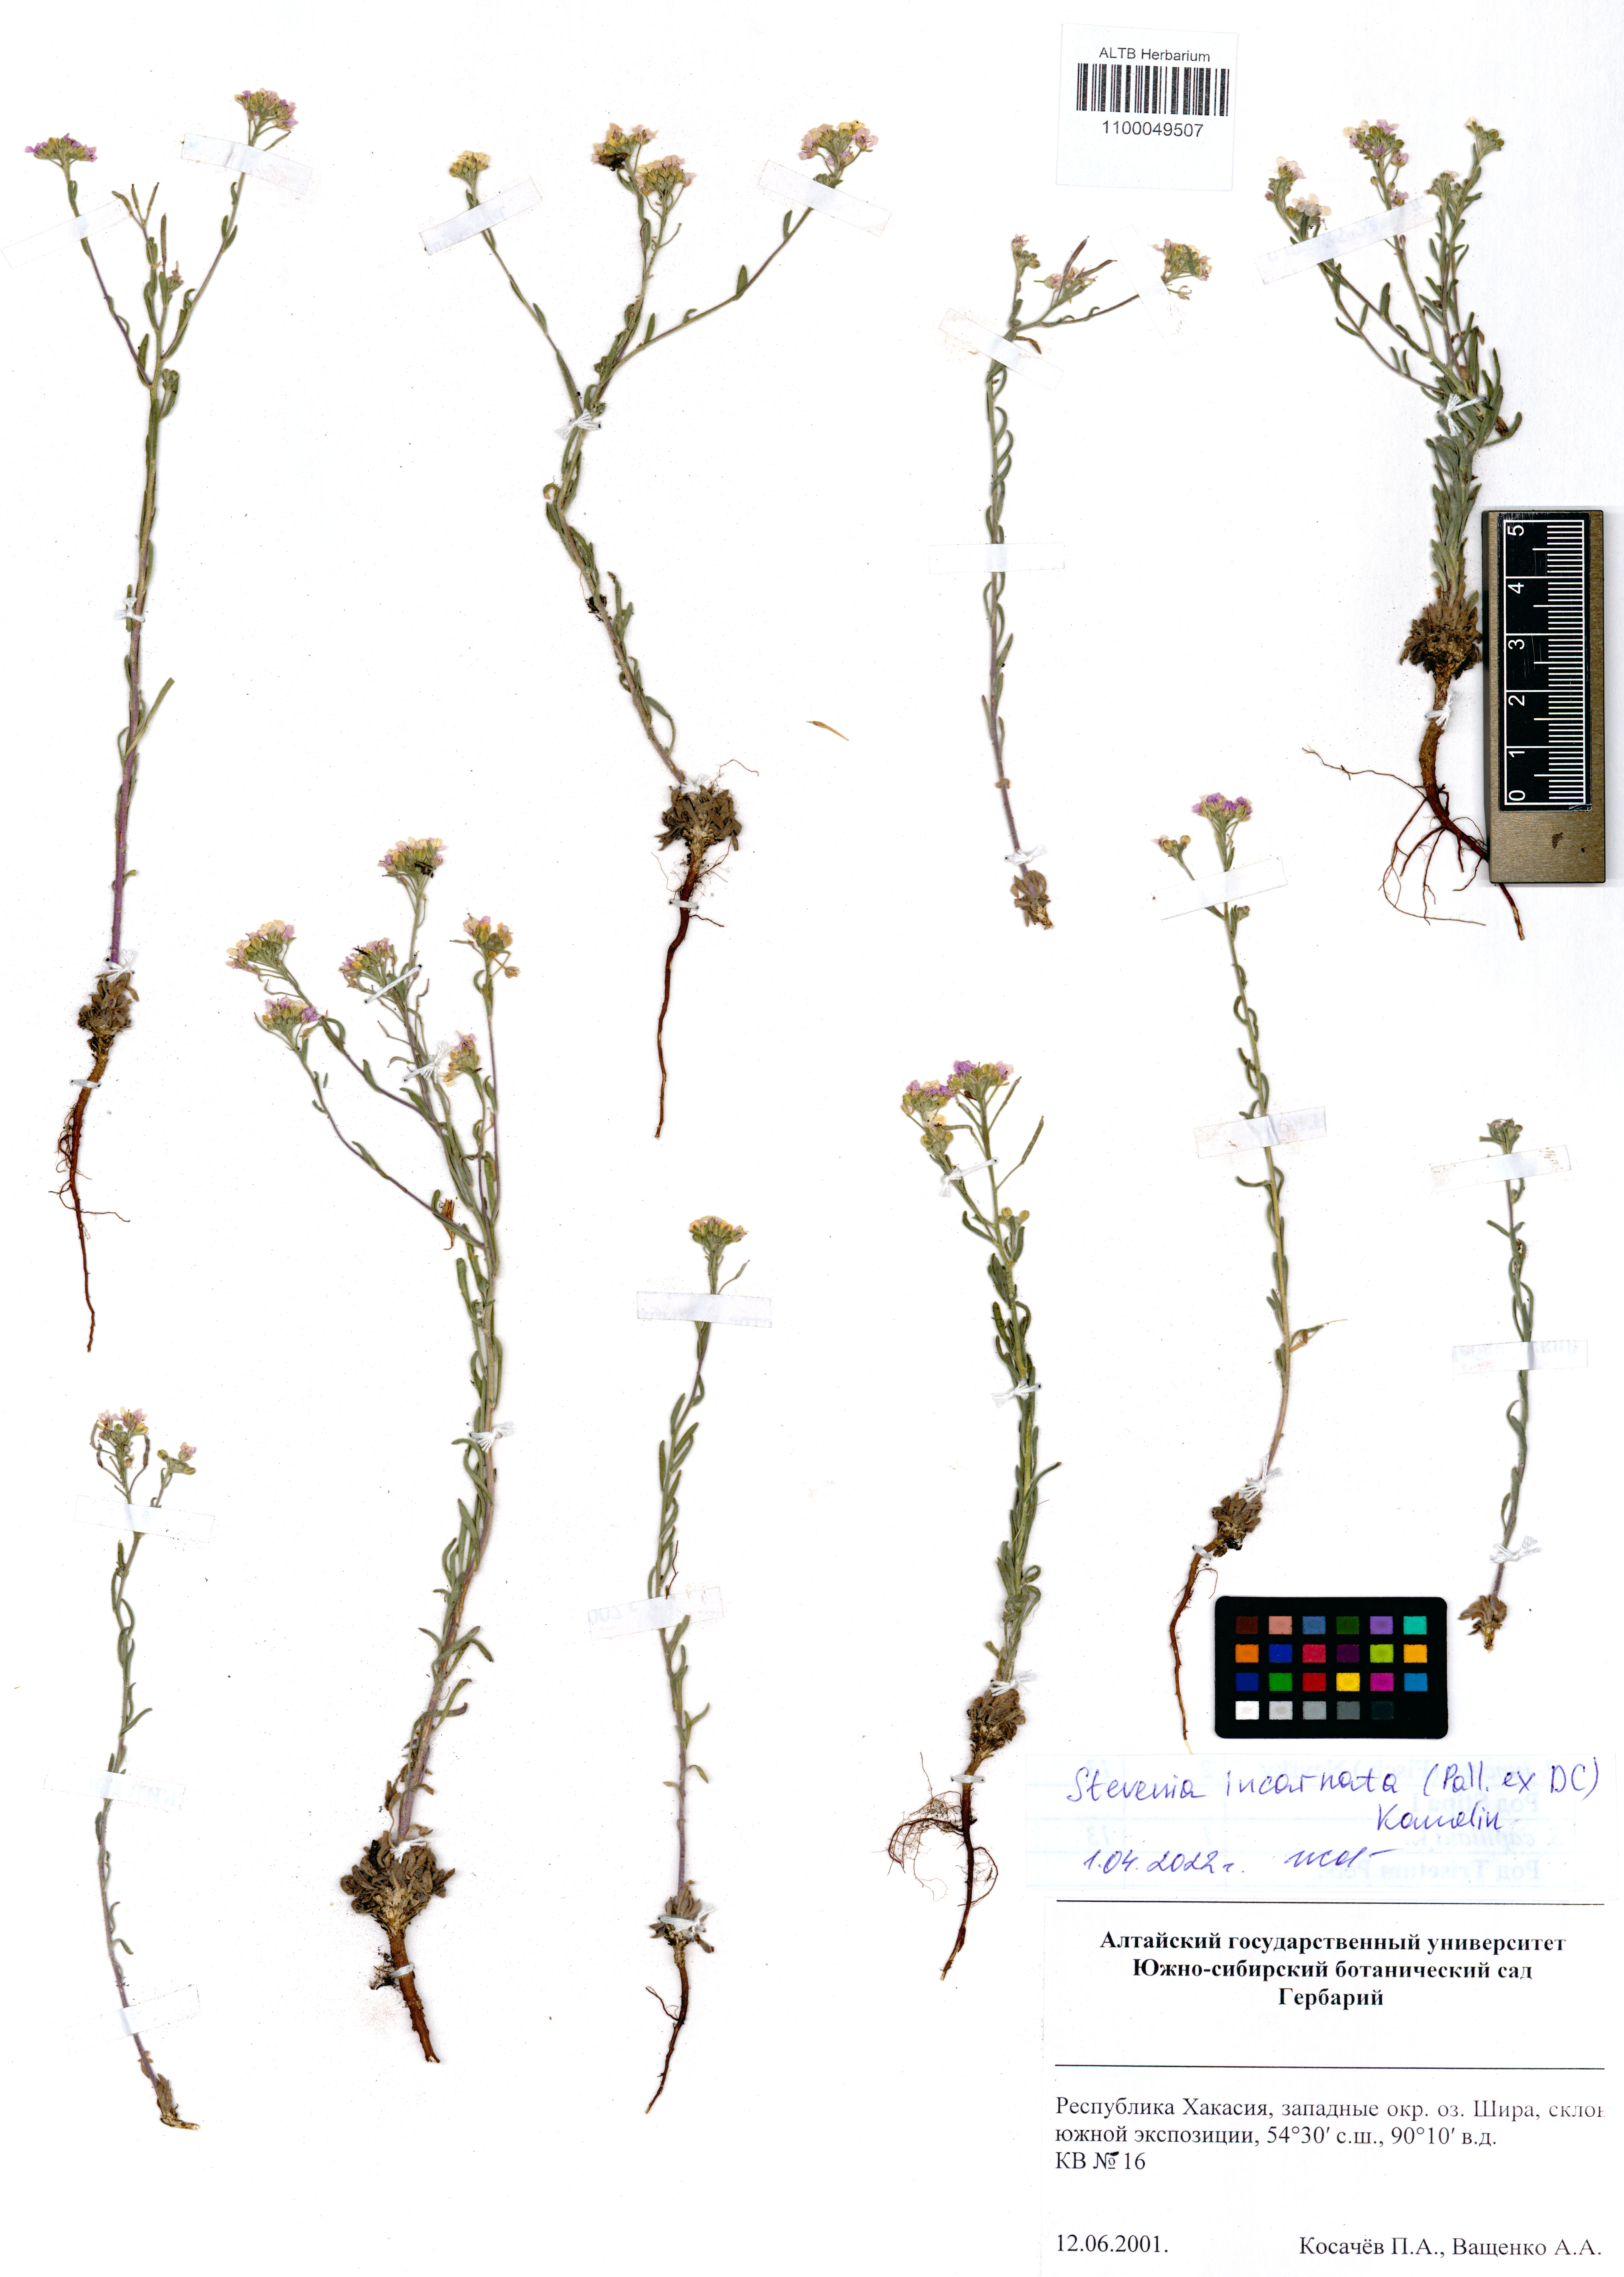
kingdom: Plantae
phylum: Tracheophyta
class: Magnoliopsida
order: Brassicales
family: Brassicaceae
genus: Stevenia
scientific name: Stevenia incarnata
